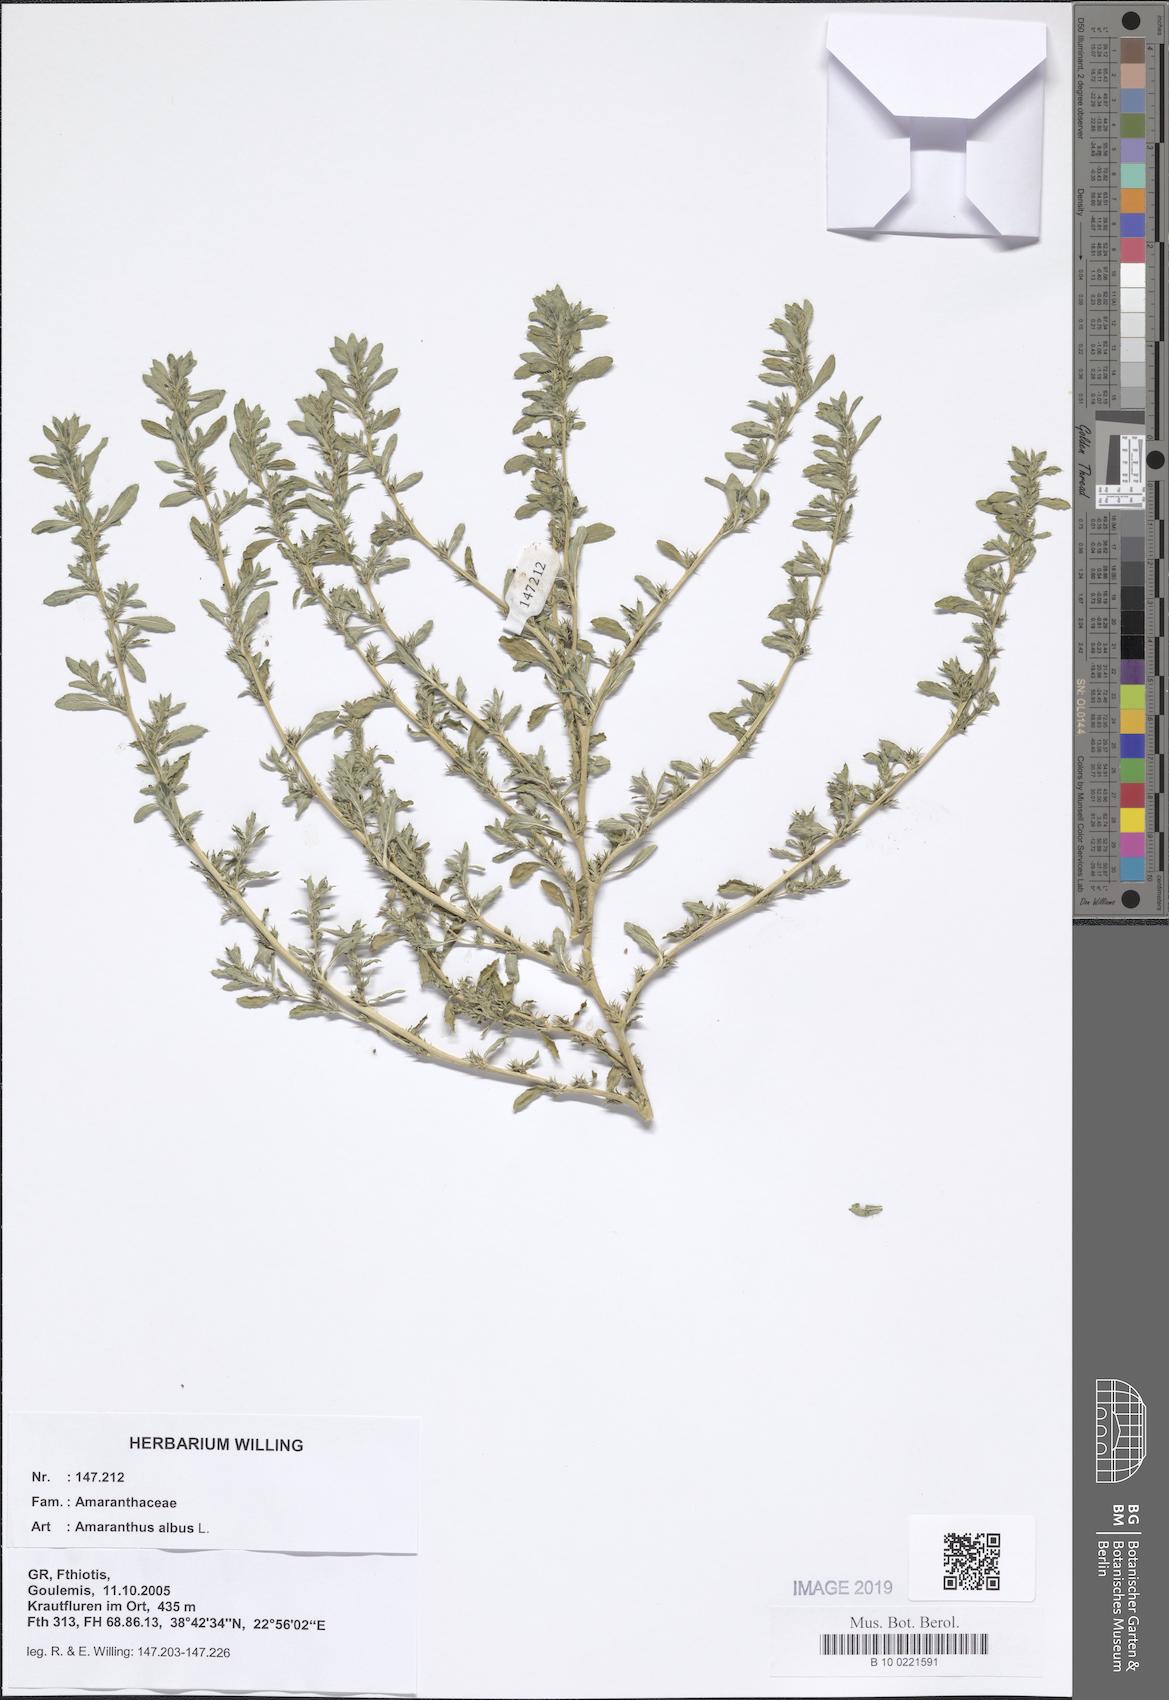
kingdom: Plantae
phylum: Tracheophyta
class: Magnoliopsida
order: Caryophyllales
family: Amaranthaceae
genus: Amaranthus
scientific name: Amaranthus albus
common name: White pigweed
